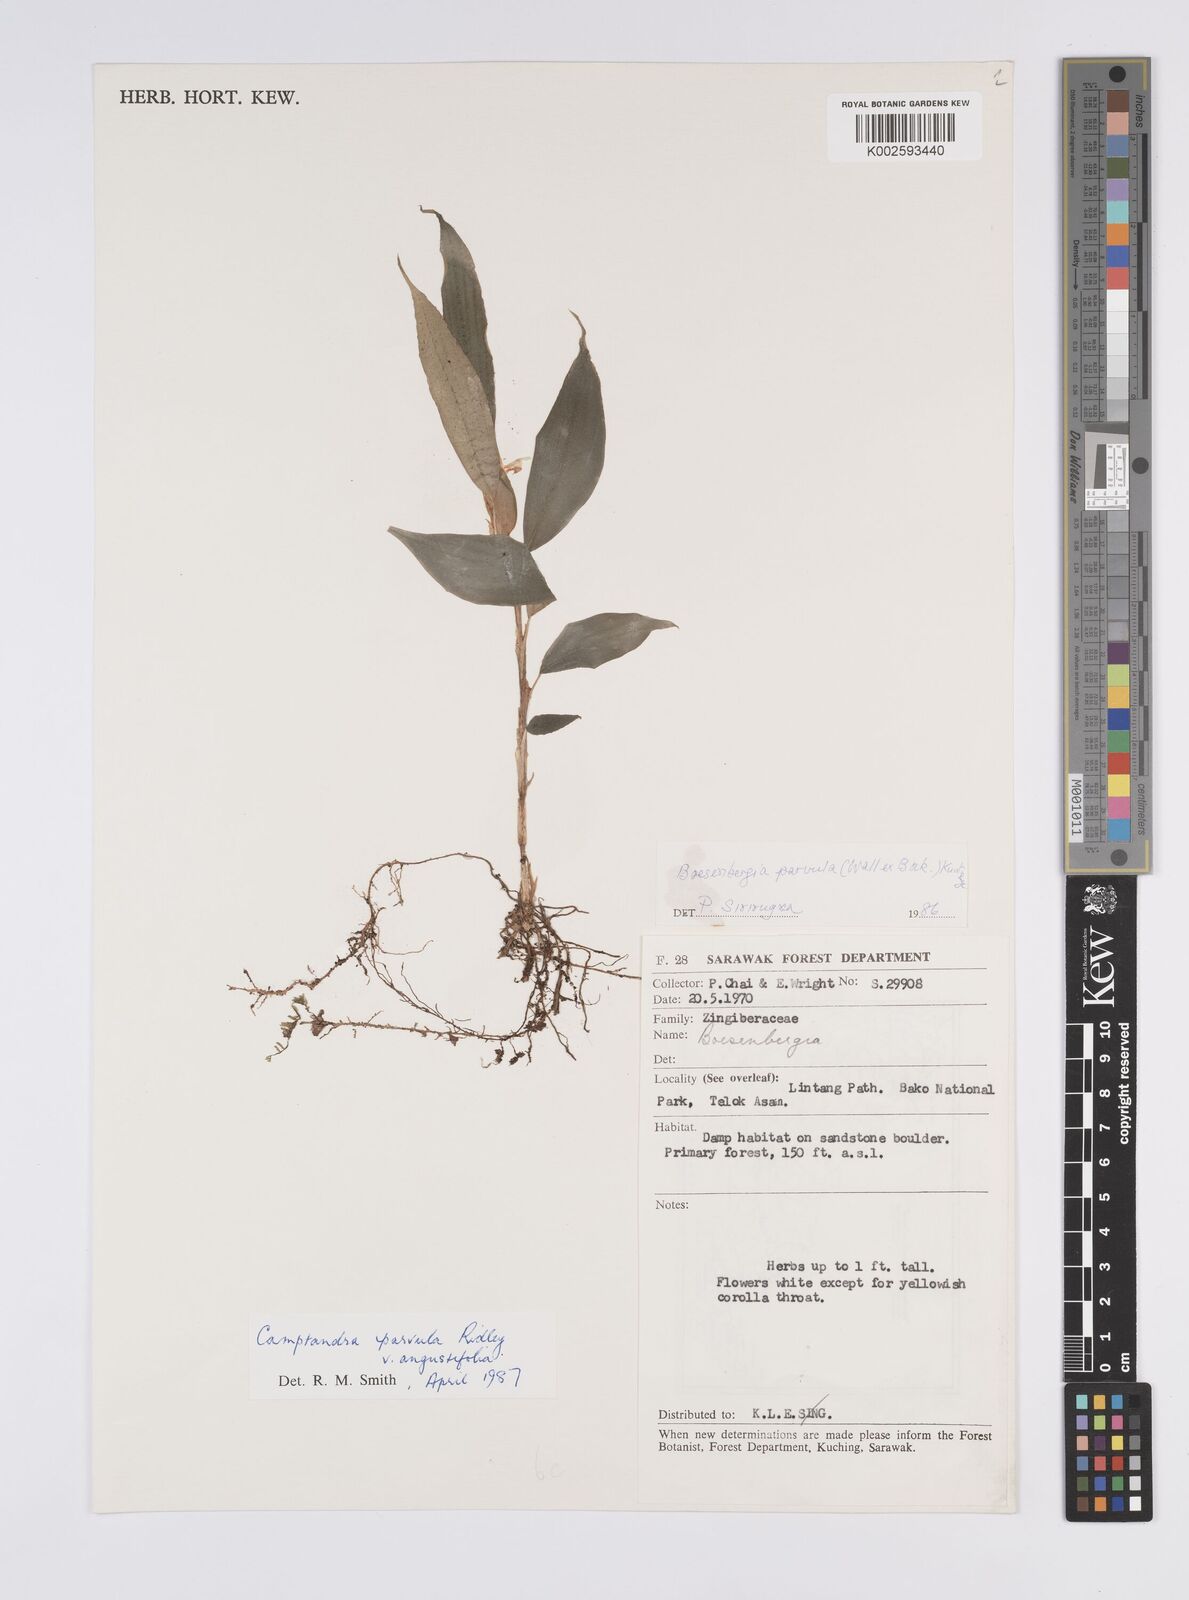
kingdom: Plantae
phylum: Tracheophyta
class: Liliopsida
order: Zingiberales
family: Zingiberaceae
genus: Camptandra
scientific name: Camptandra parvula
